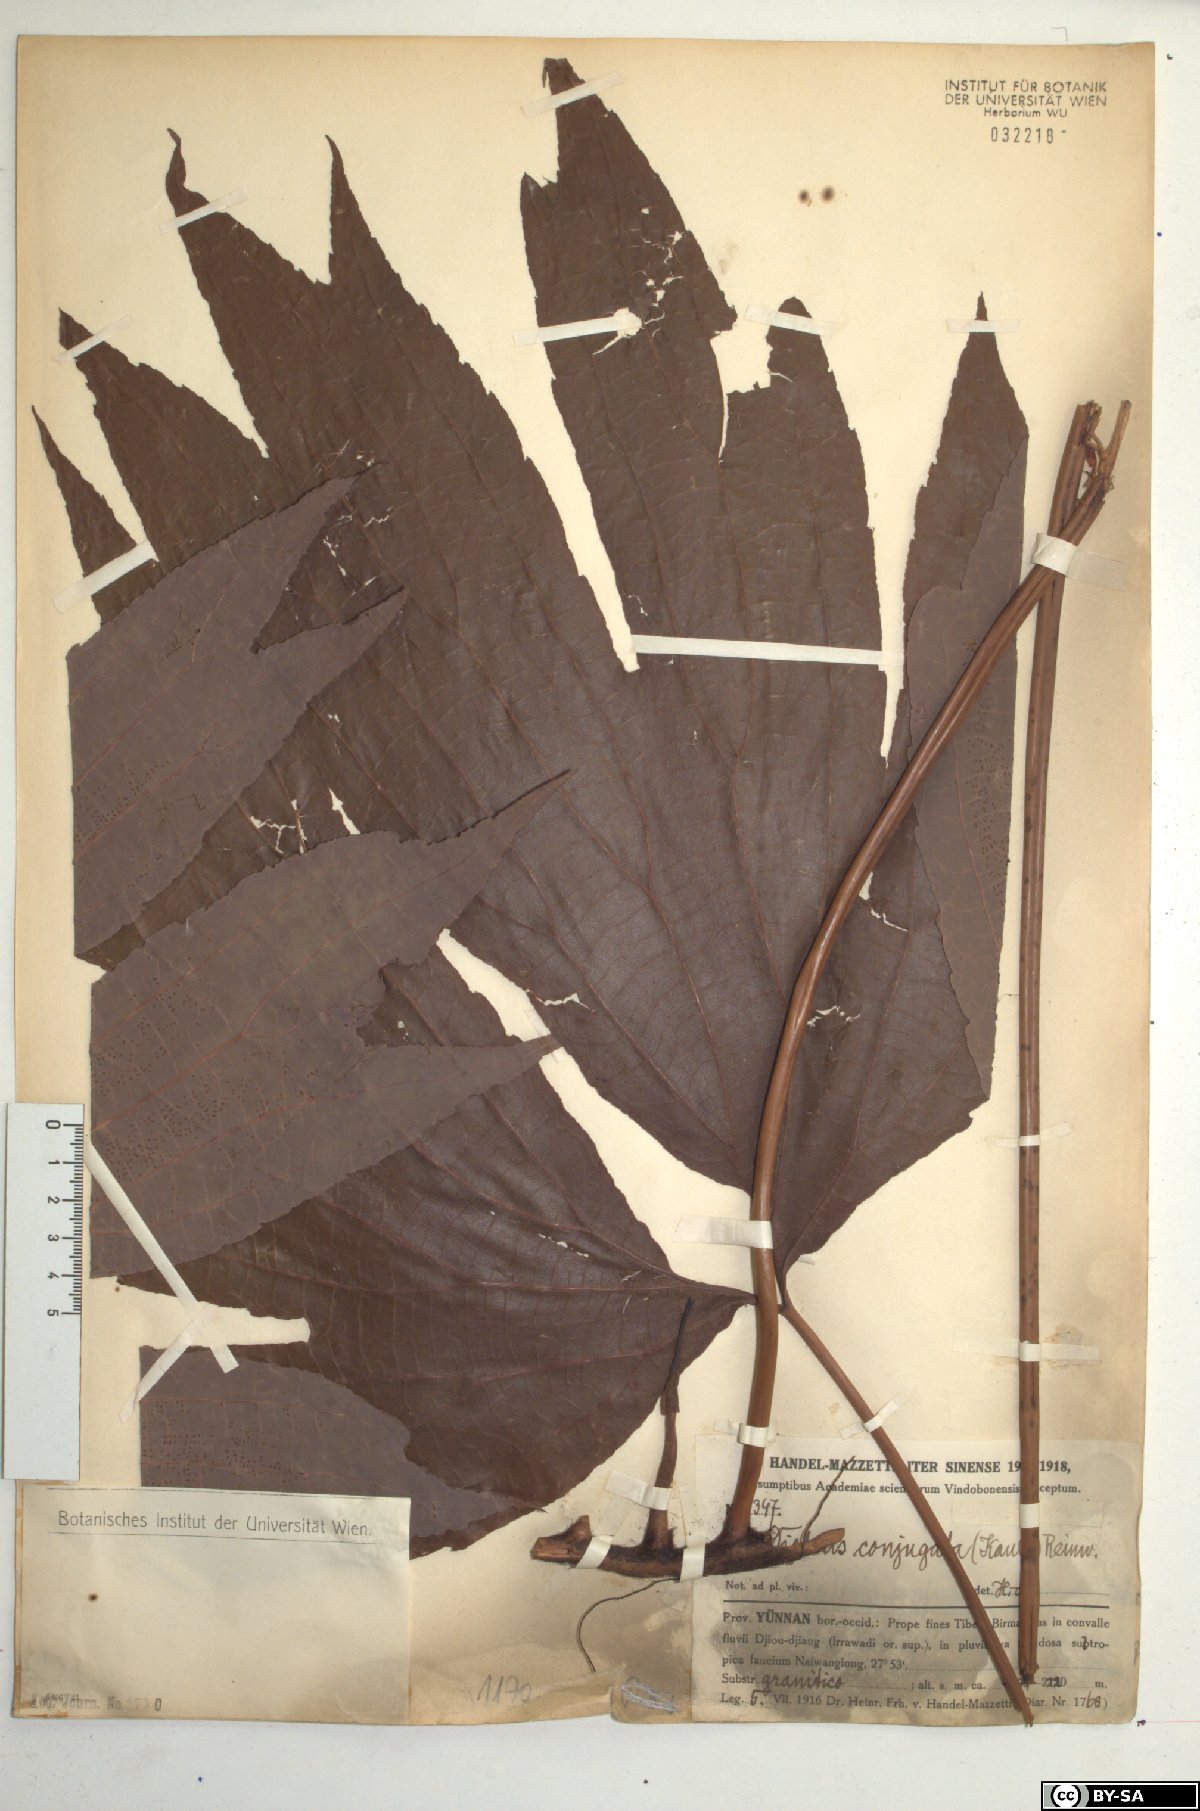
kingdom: Plantae
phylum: Tracheophyta
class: Polypodiopsida
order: Gleicheniales
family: Dipteridaceae
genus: Dipteris
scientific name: Dipteris conjugata
